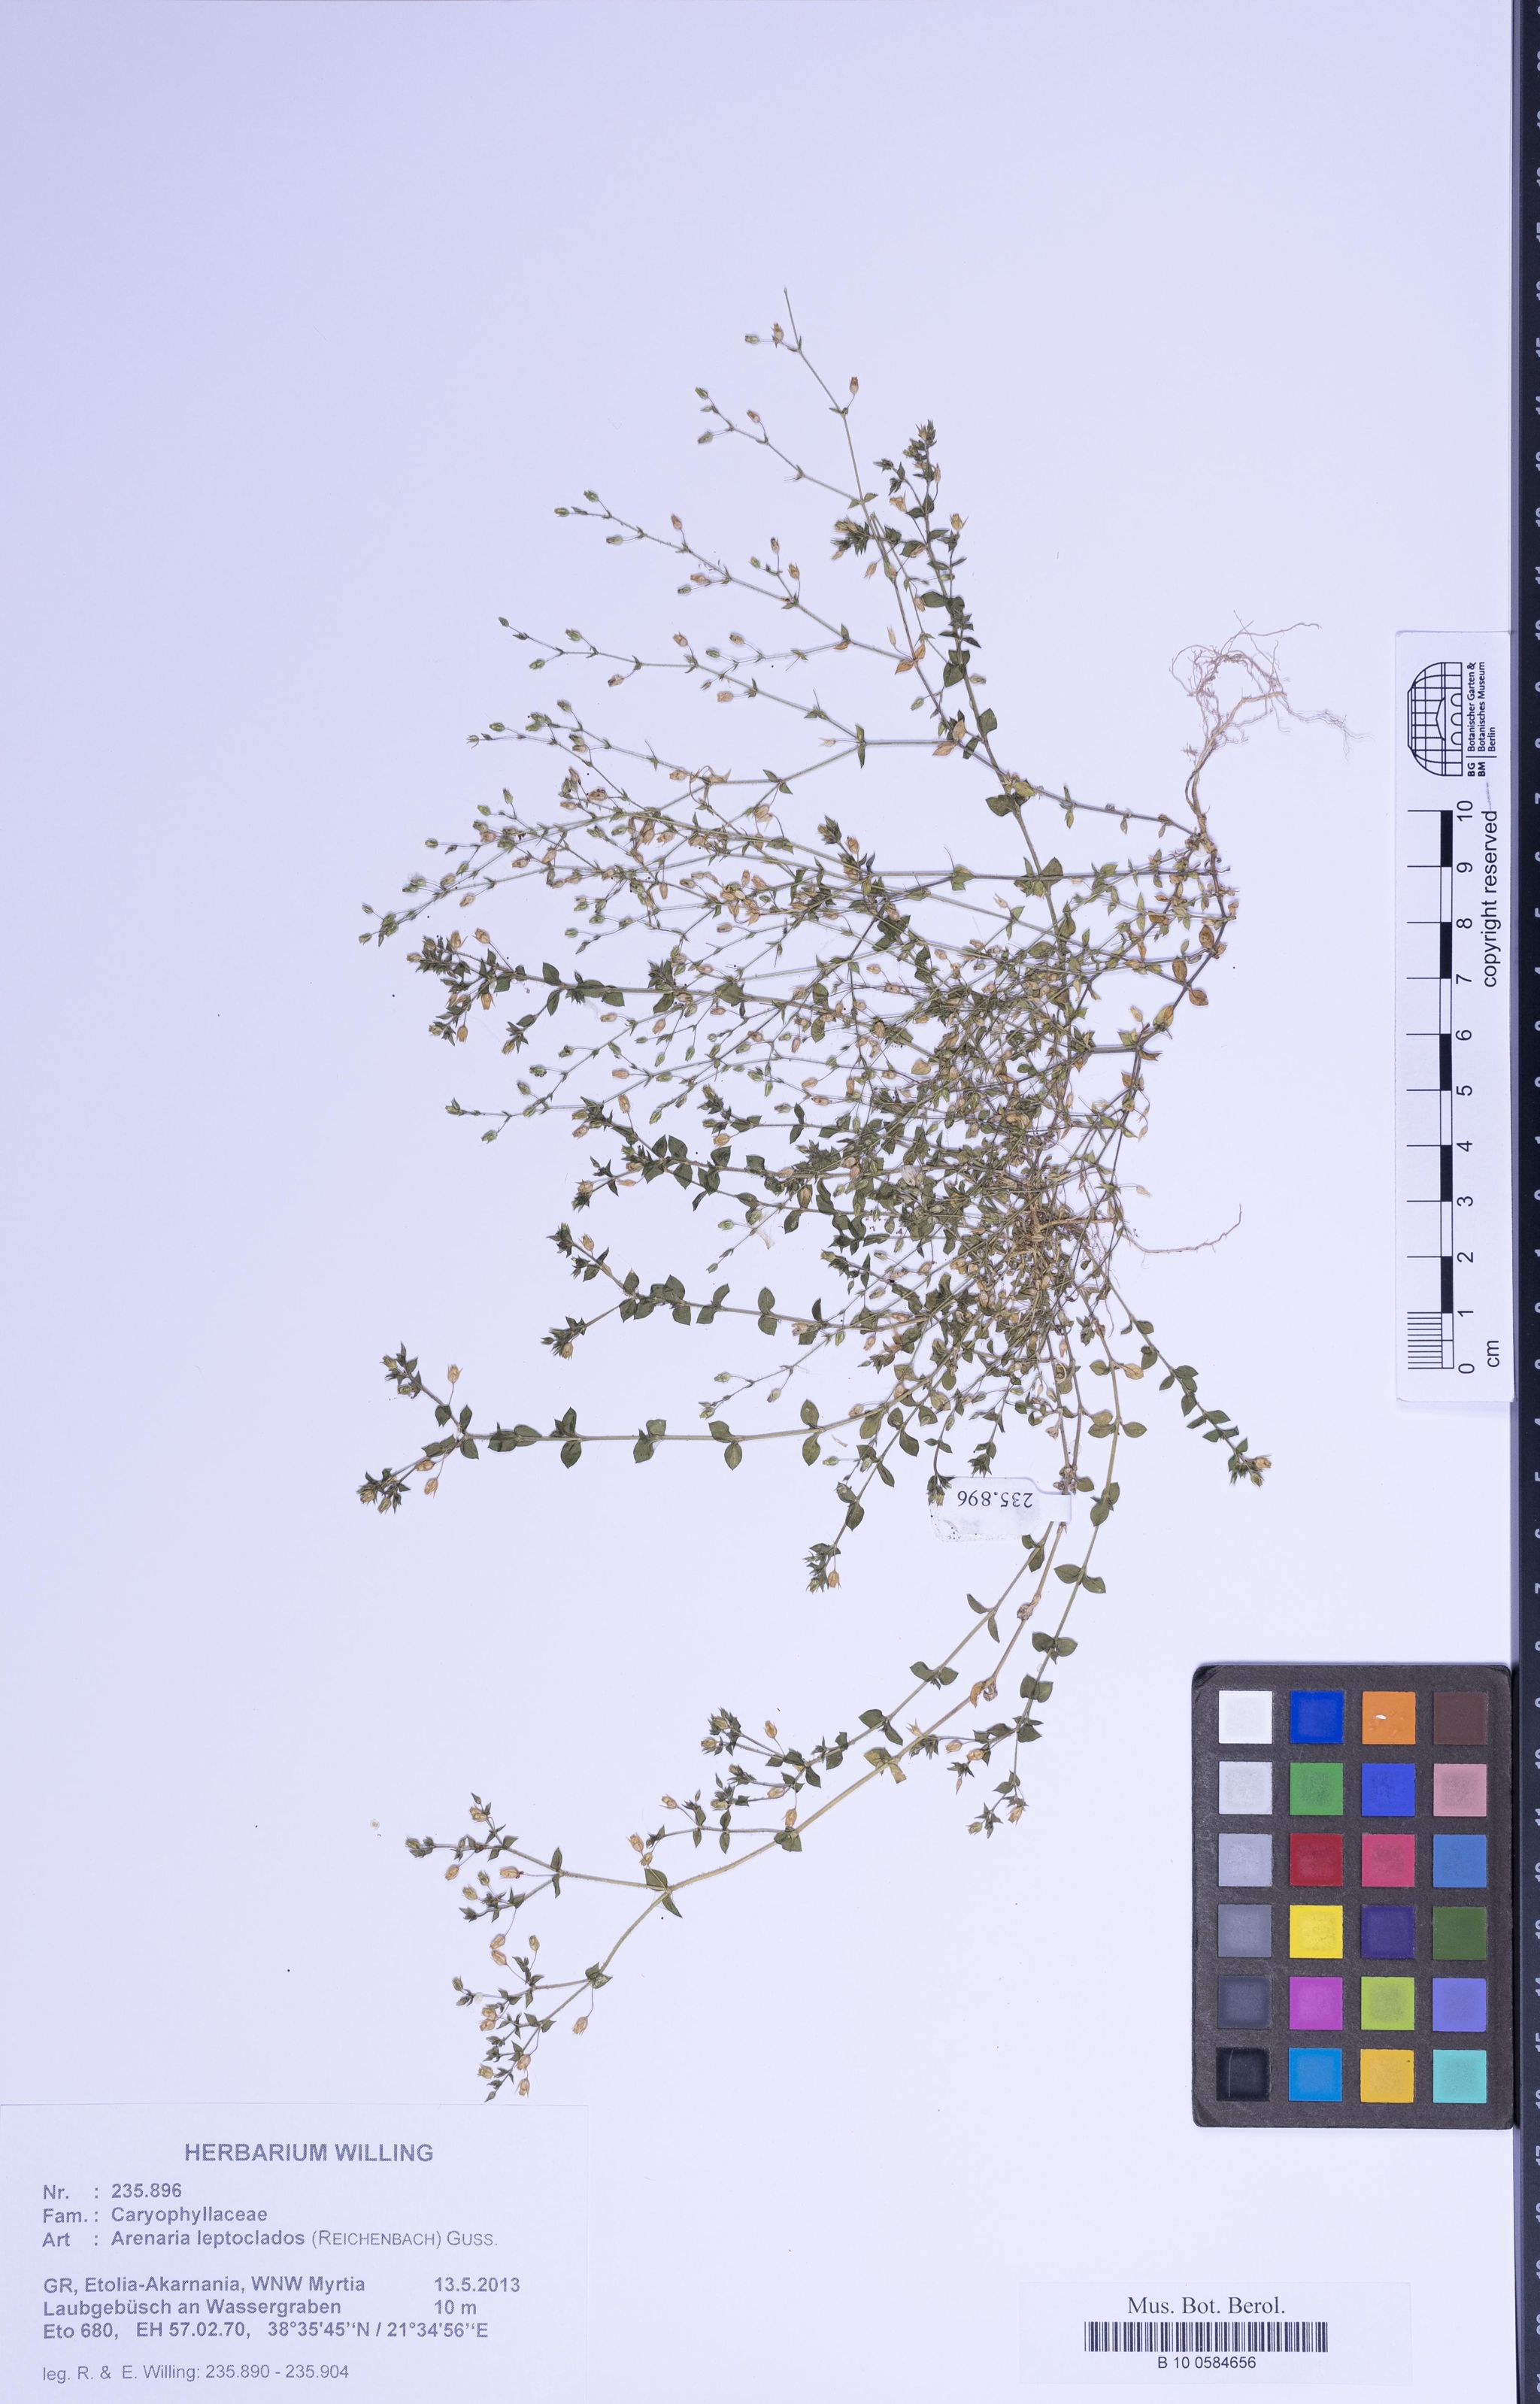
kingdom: Plantae
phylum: Tracheophyta
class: Magnoliopsida
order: Caryophyllales
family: Caryophyllaceae
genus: Arenaria
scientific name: Arenaria leptoclados
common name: Thyme-leaved sandwort
